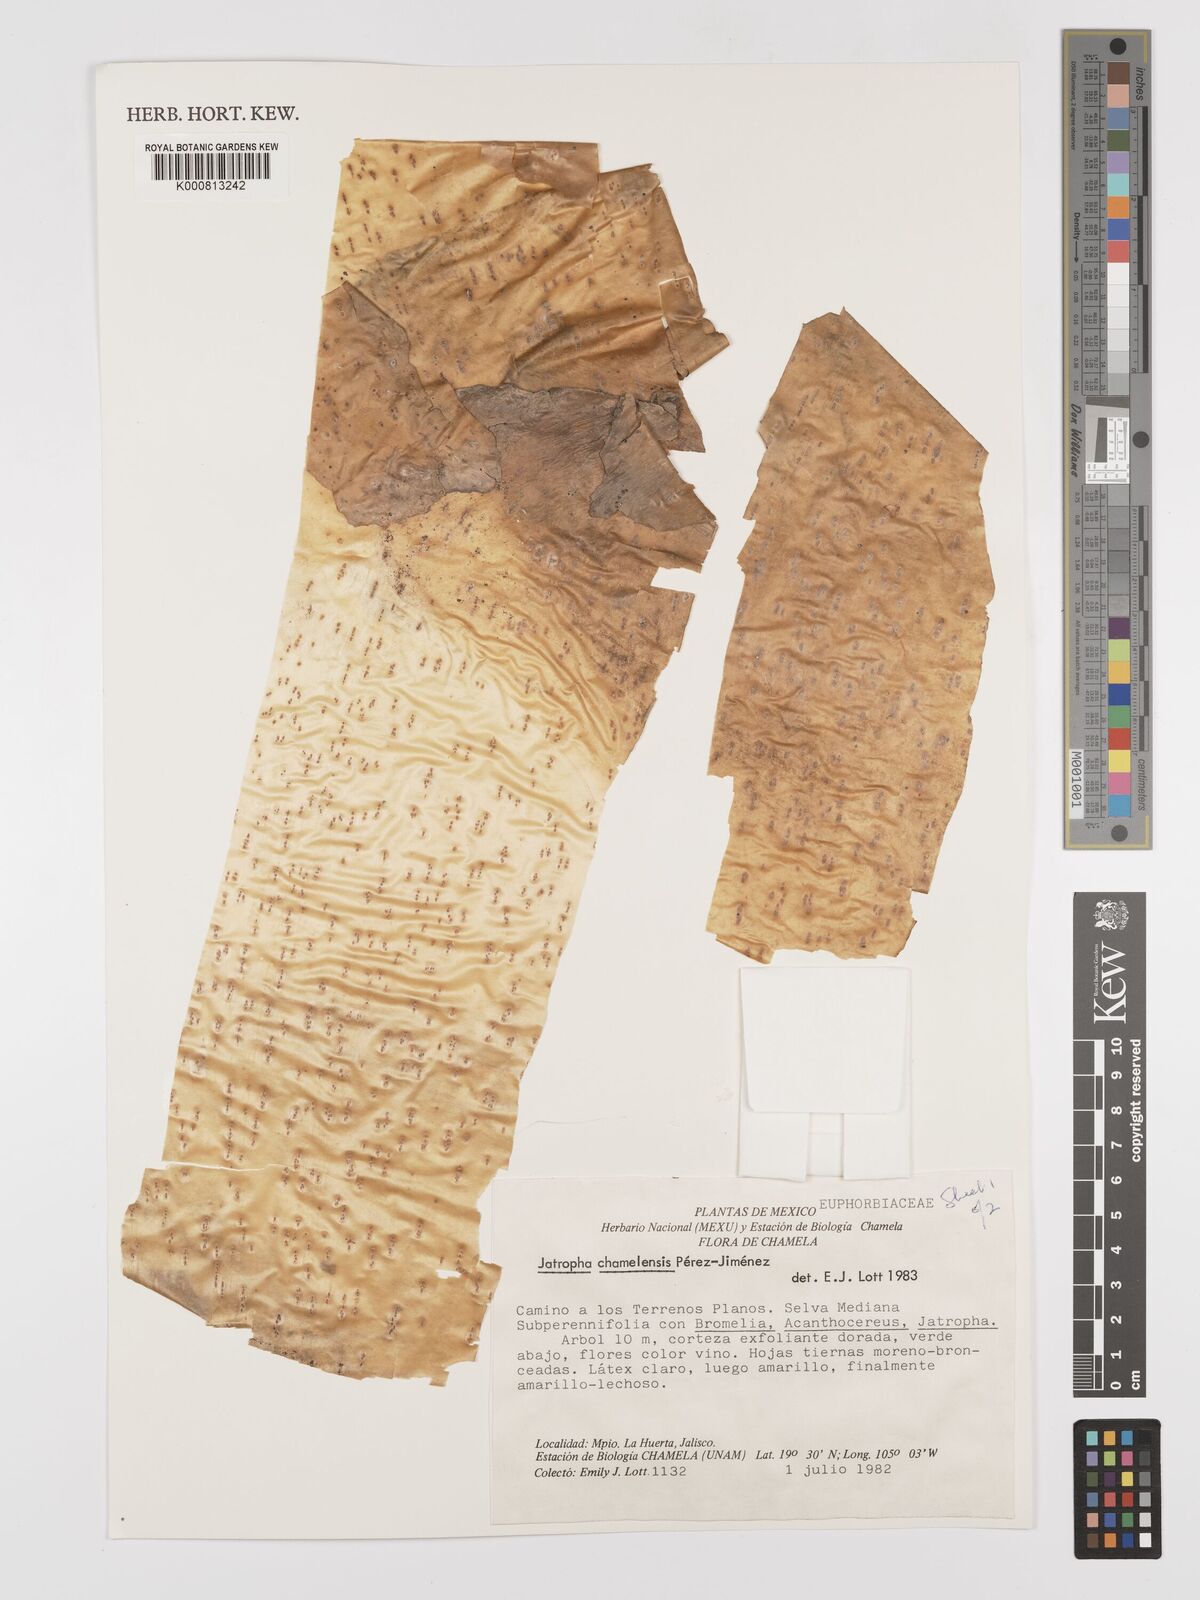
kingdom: Plantae
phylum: Tracheophyta
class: Magnoliopsida
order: Malpighiales
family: Euphorbiaceae
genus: Jatropha
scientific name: Jatropha
